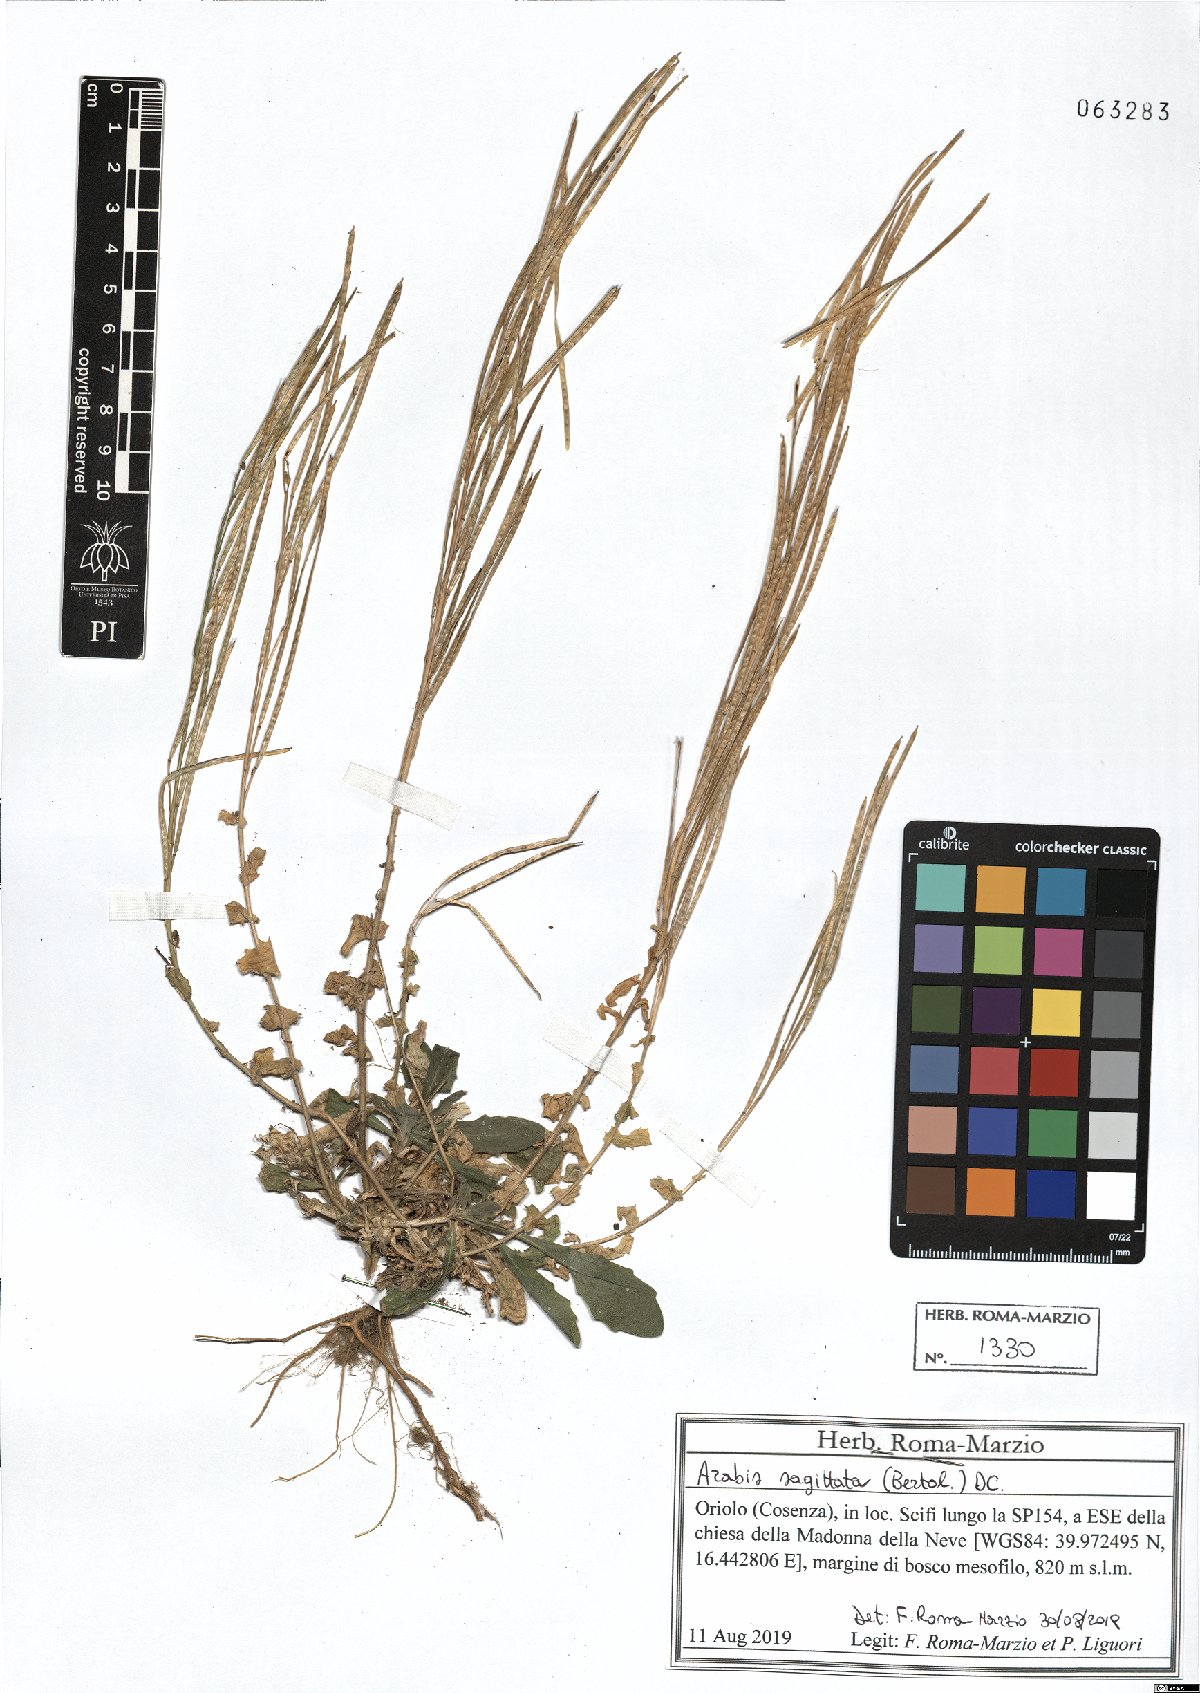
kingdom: Plantae
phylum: Tracheophyta
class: Magnoliopsida
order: Brassicales
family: Brassicaceae
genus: Arabis
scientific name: Arabis sagittata
